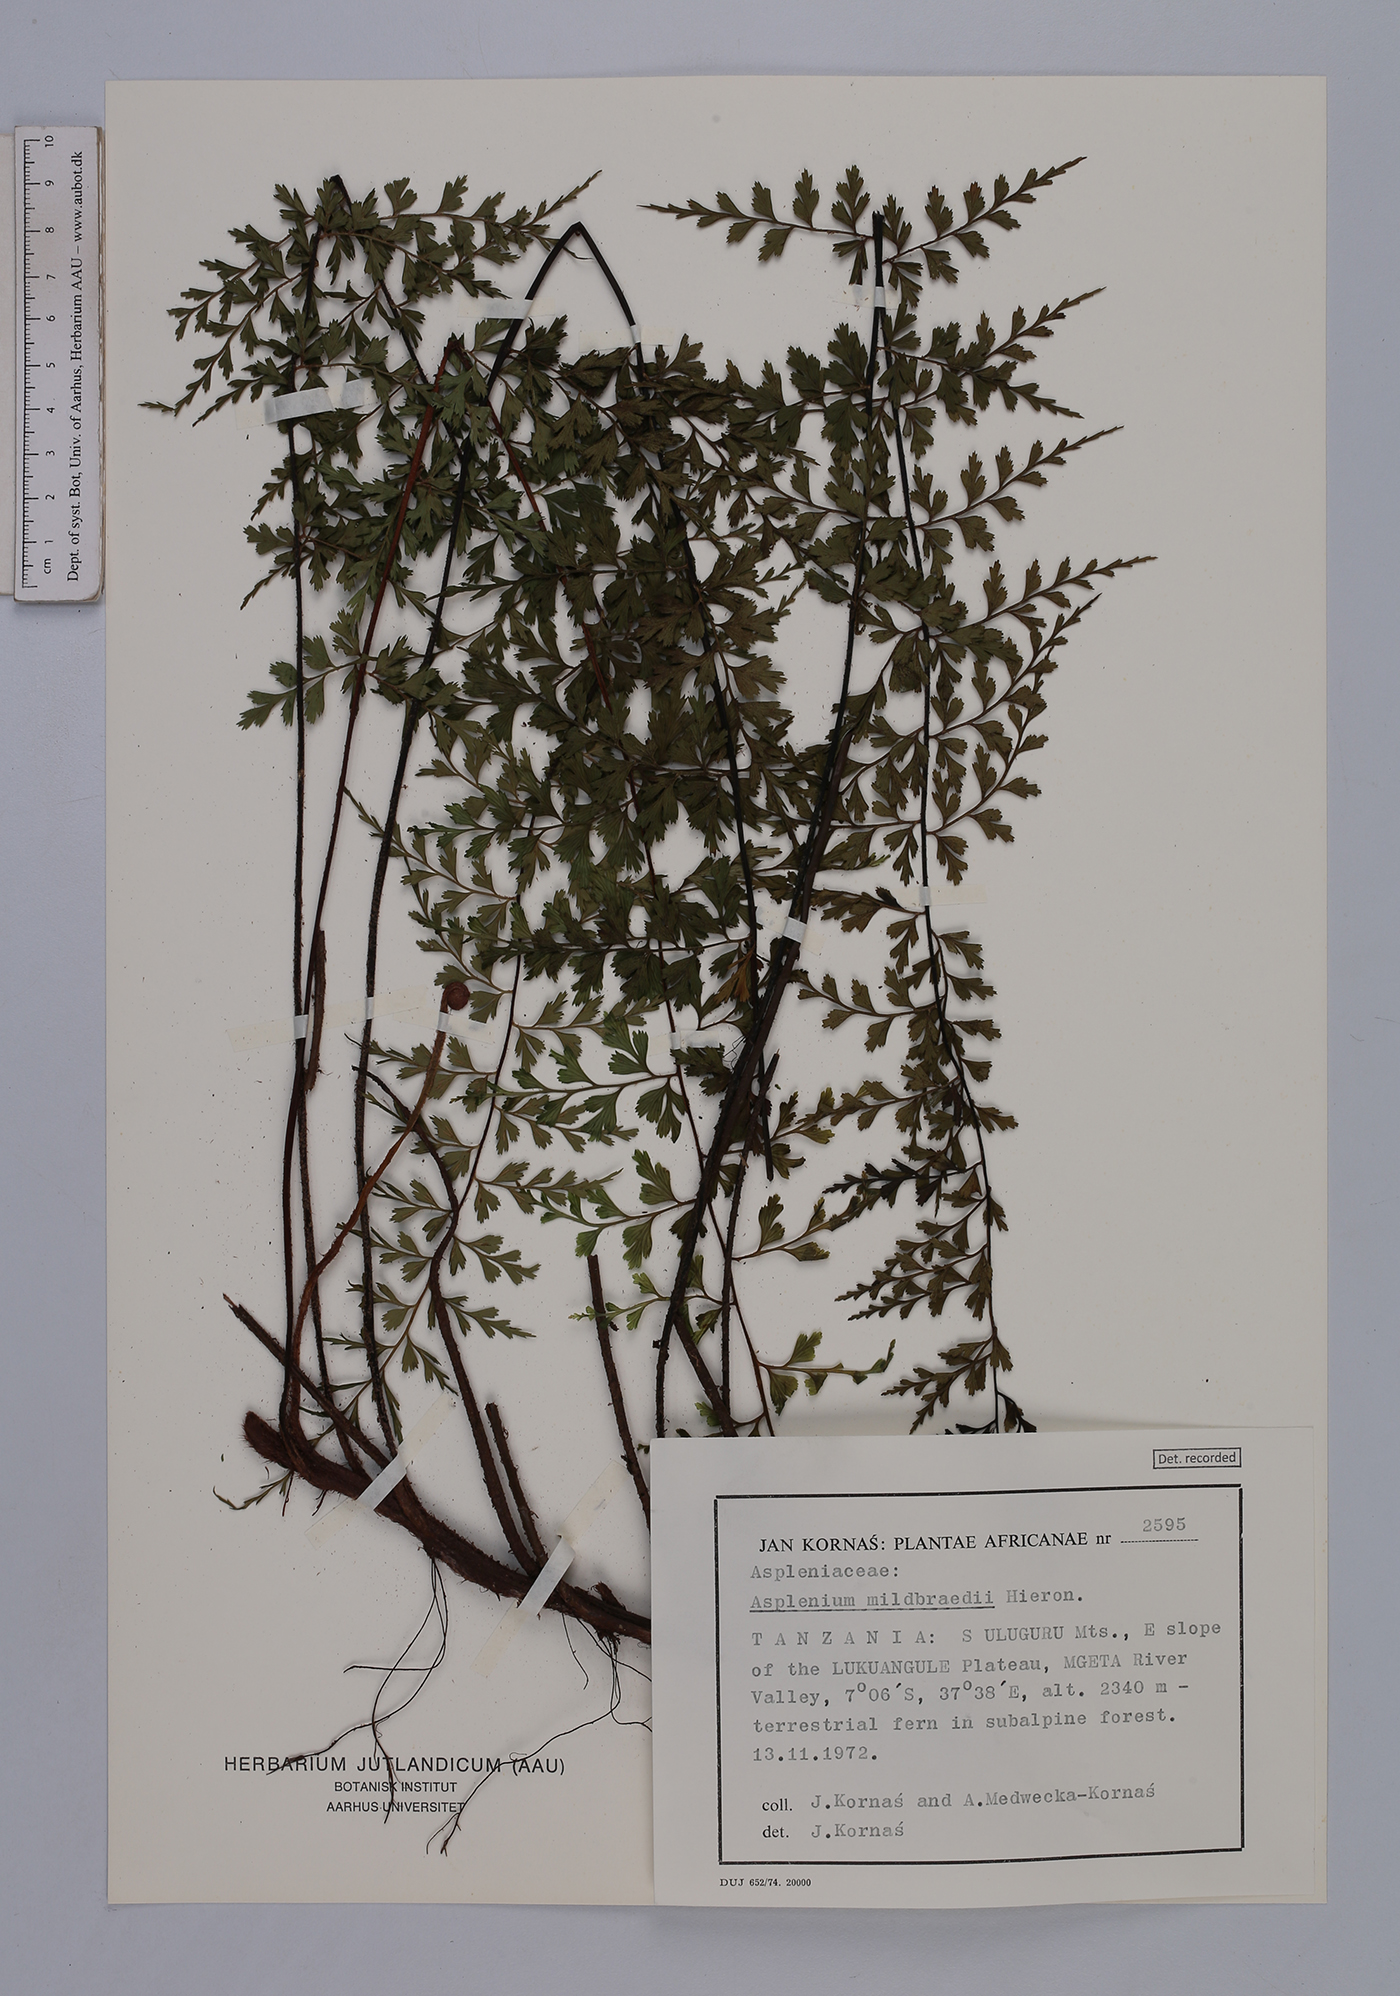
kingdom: Plantae
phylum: Tracheophyta
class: Polypodiopsida
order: Polypodiales
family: Aspleniaceae
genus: Asplenium
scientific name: Asplenium mildbraedii
